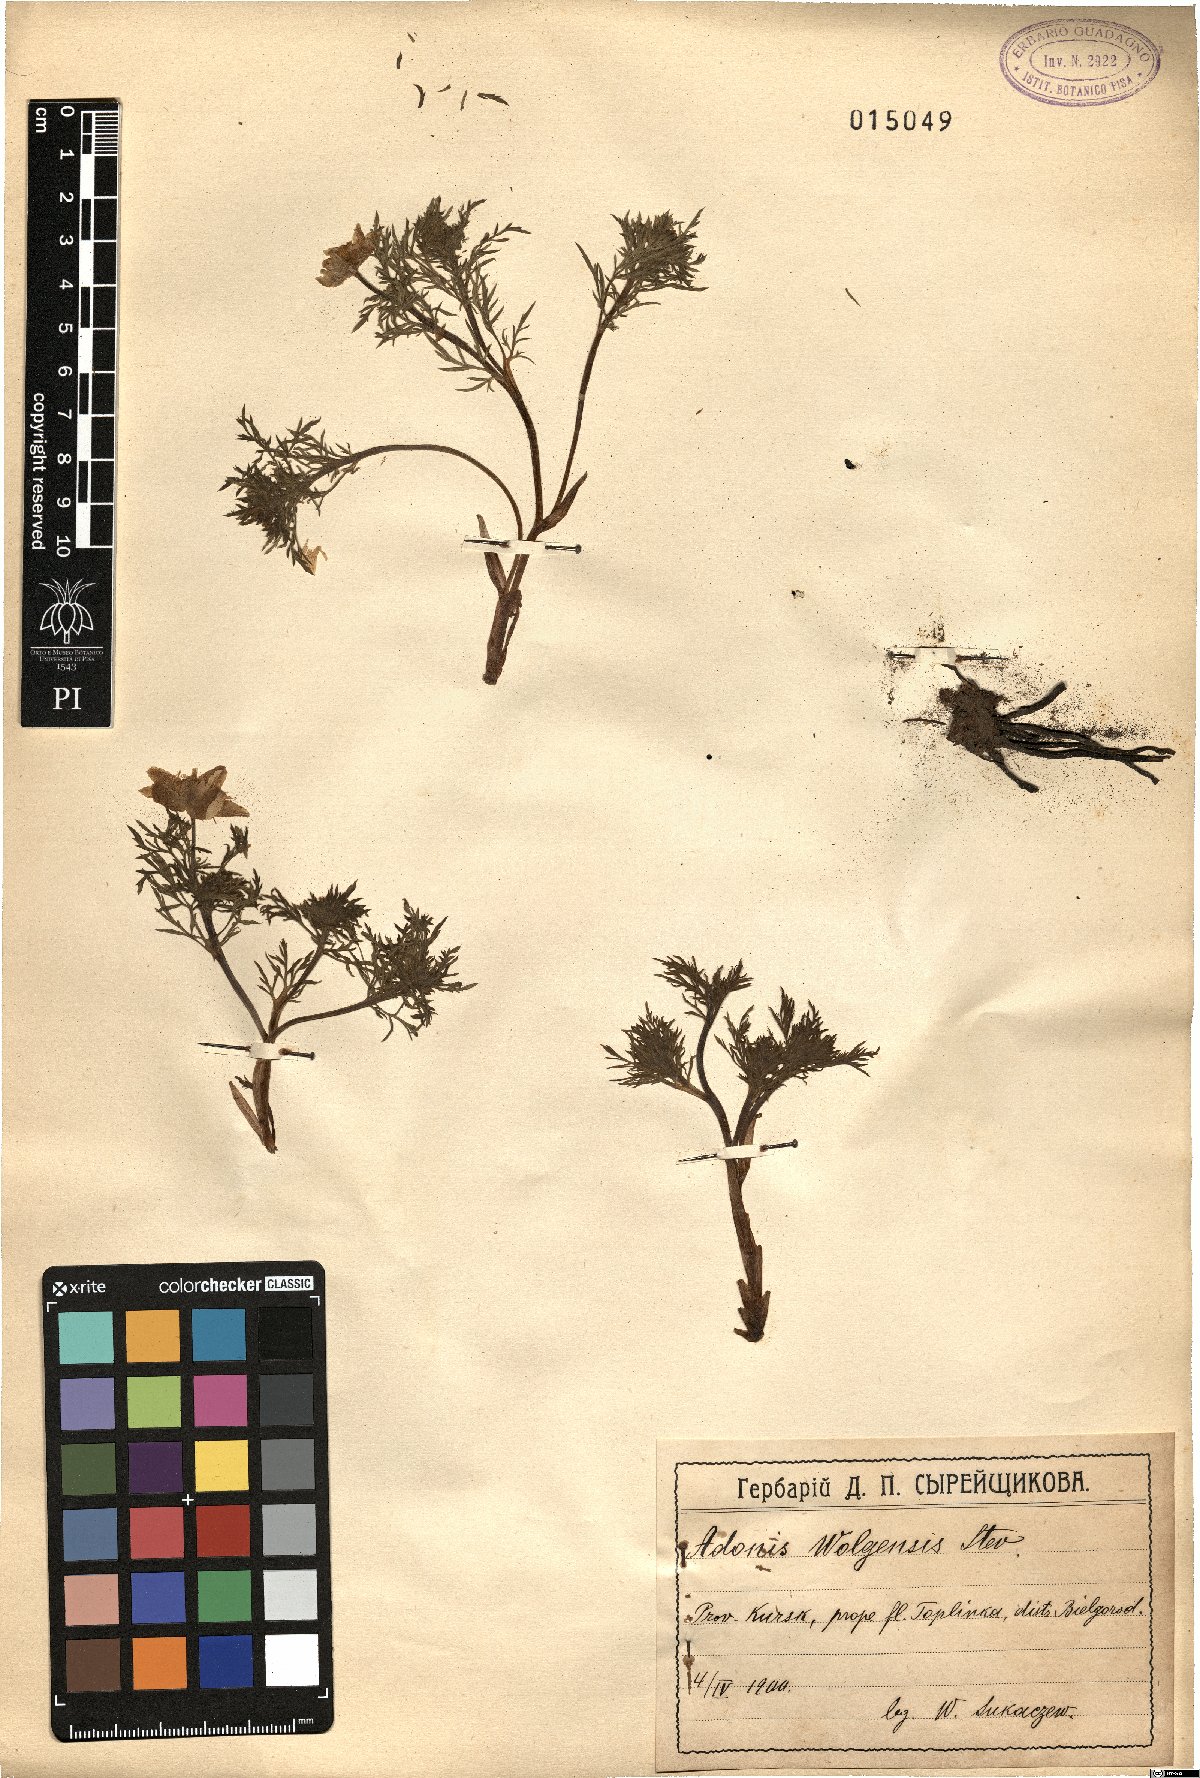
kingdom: Plantae
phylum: Tracheophyta
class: Magnoliopsida
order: Ranunculales
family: Ranunculaceae
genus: Adonis
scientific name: Adonis wolgensis
